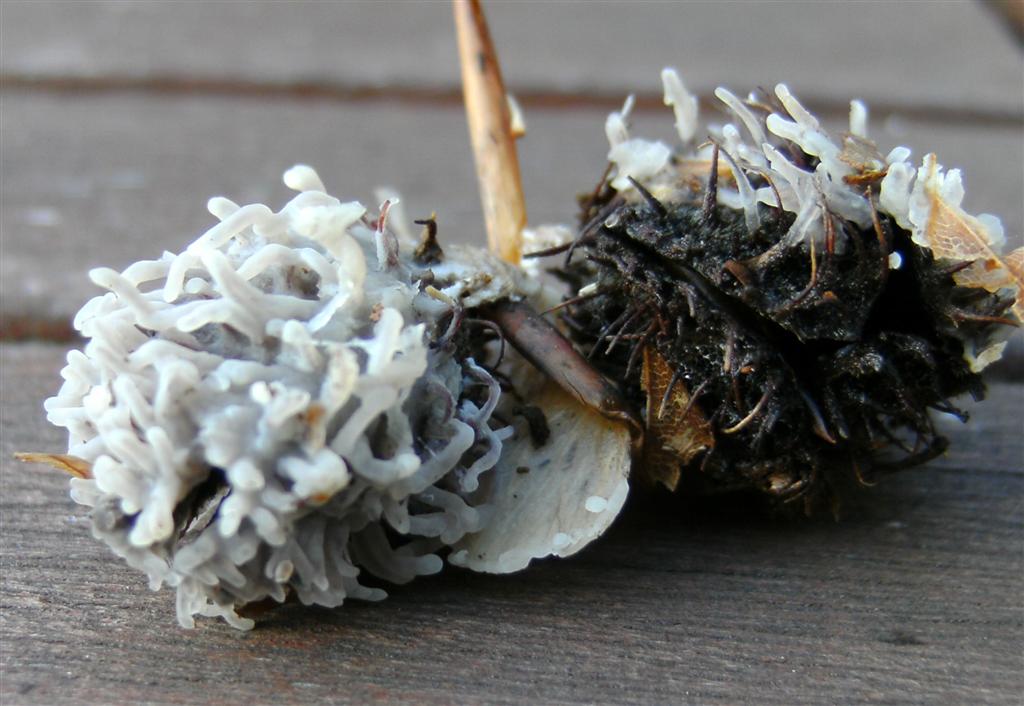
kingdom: Fungi
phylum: Basidiomycota
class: Agaricomycetes
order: Polyporales
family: Irpicaceae
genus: Efibula
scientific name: Efibula tuberculata
